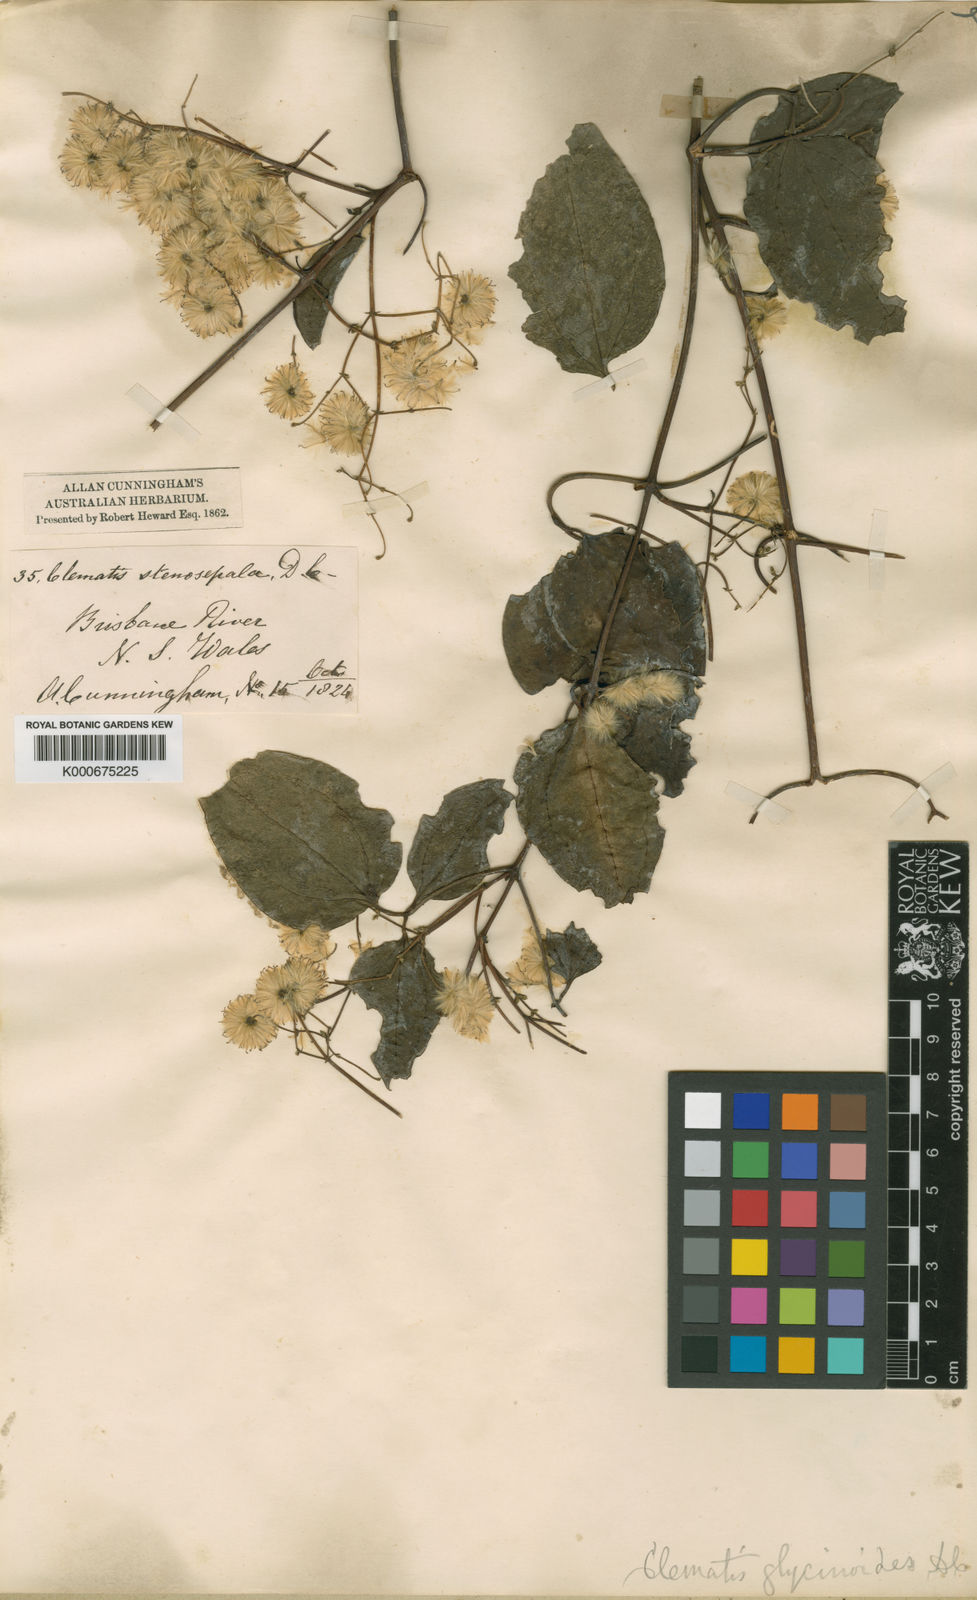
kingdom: Plantae
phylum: Tracheophyta
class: Magnoliopsida
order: Ranunculales
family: Ranunculaceae
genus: Clematis
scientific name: Clematis glycinoides
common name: Forest clematis
